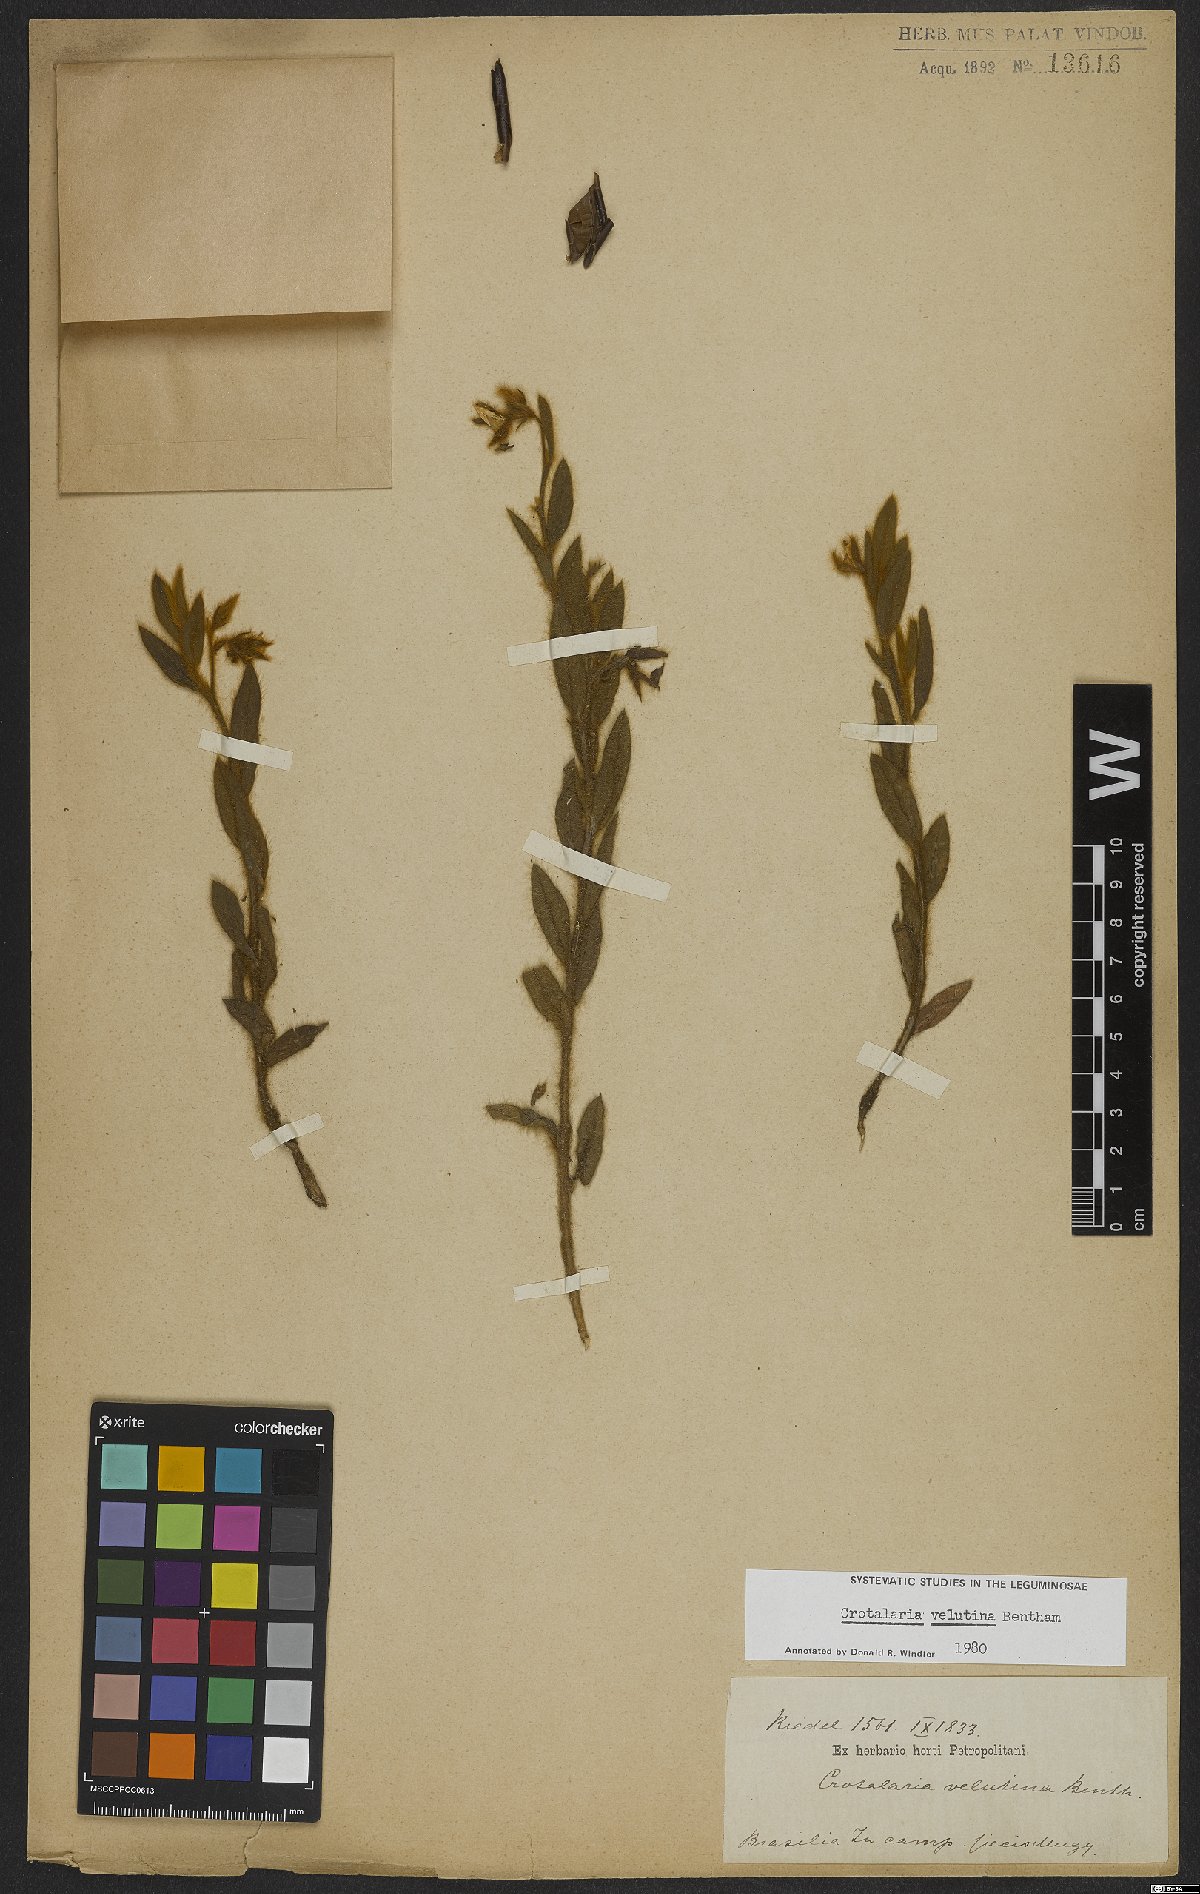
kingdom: Plantae
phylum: Tracheophyta
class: Magnoliopsida
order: Fabales
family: Fabaceae
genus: Crotalaria
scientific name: Crotalaria velutina
